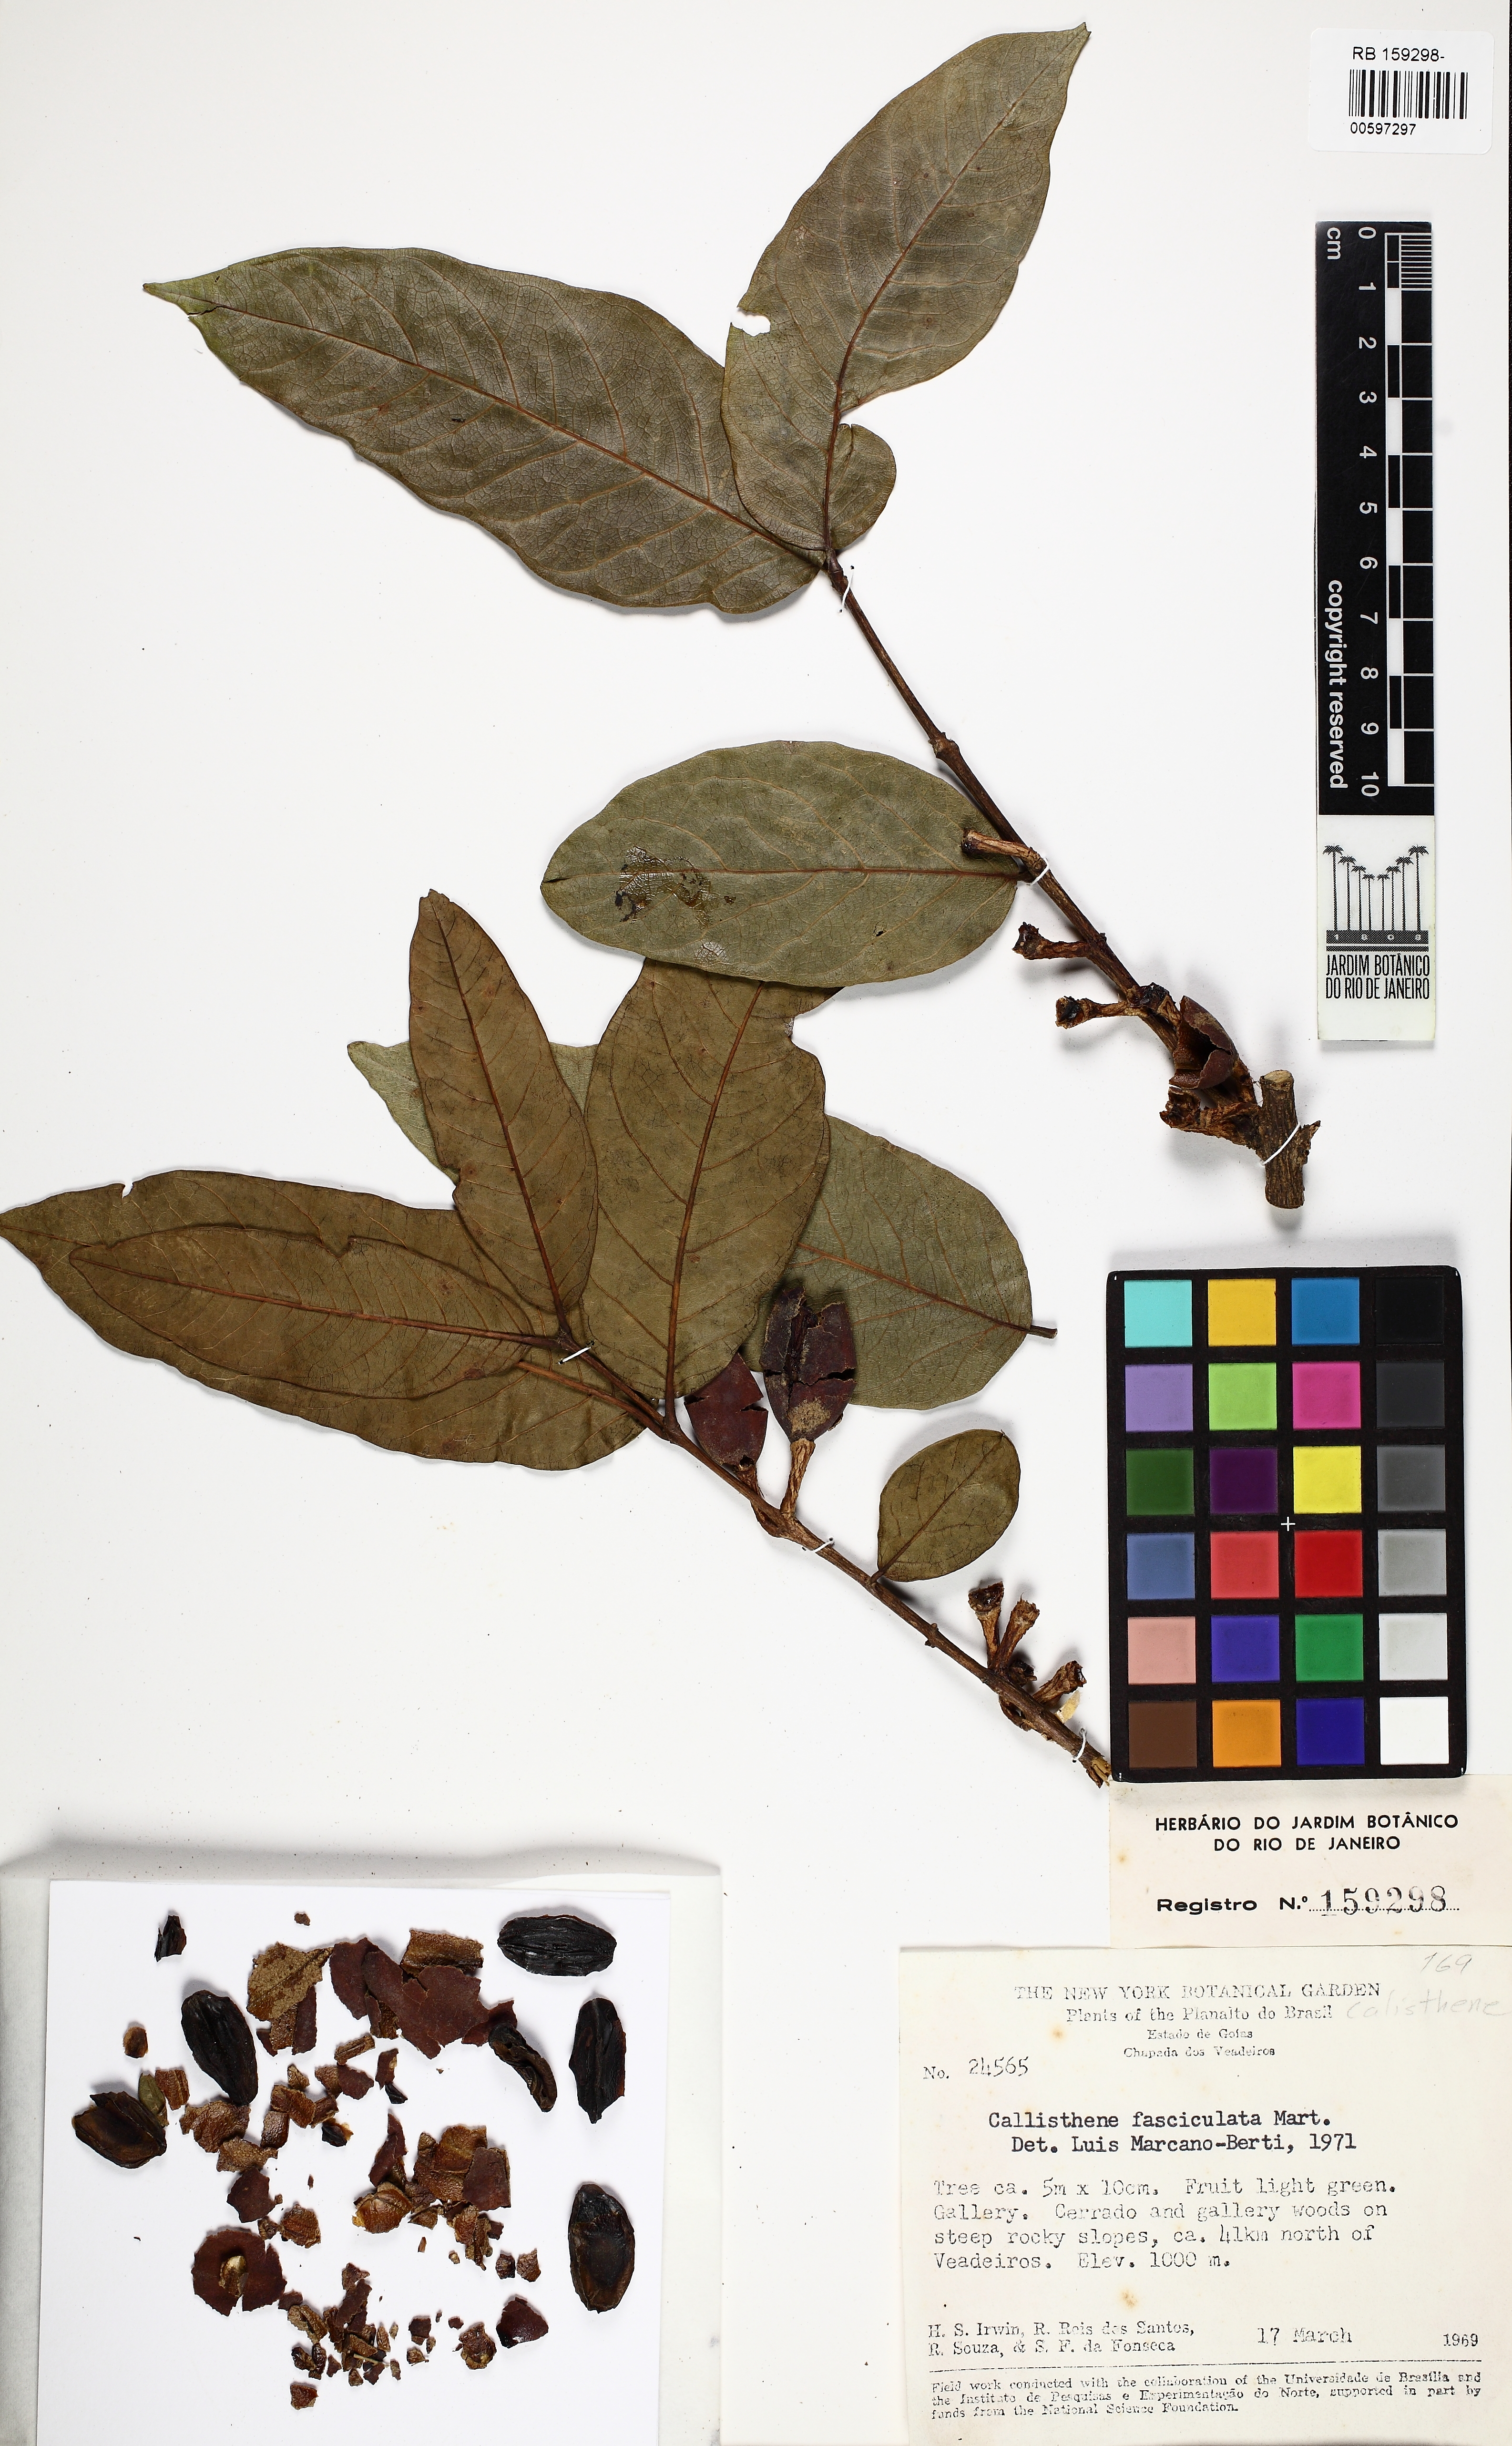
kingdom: Plantae
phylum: Tracheophyta
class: Magnoliopsida
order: Myrtales
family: Vochysiaceae
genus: Callisthene
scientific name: Callisthene fasciculata
